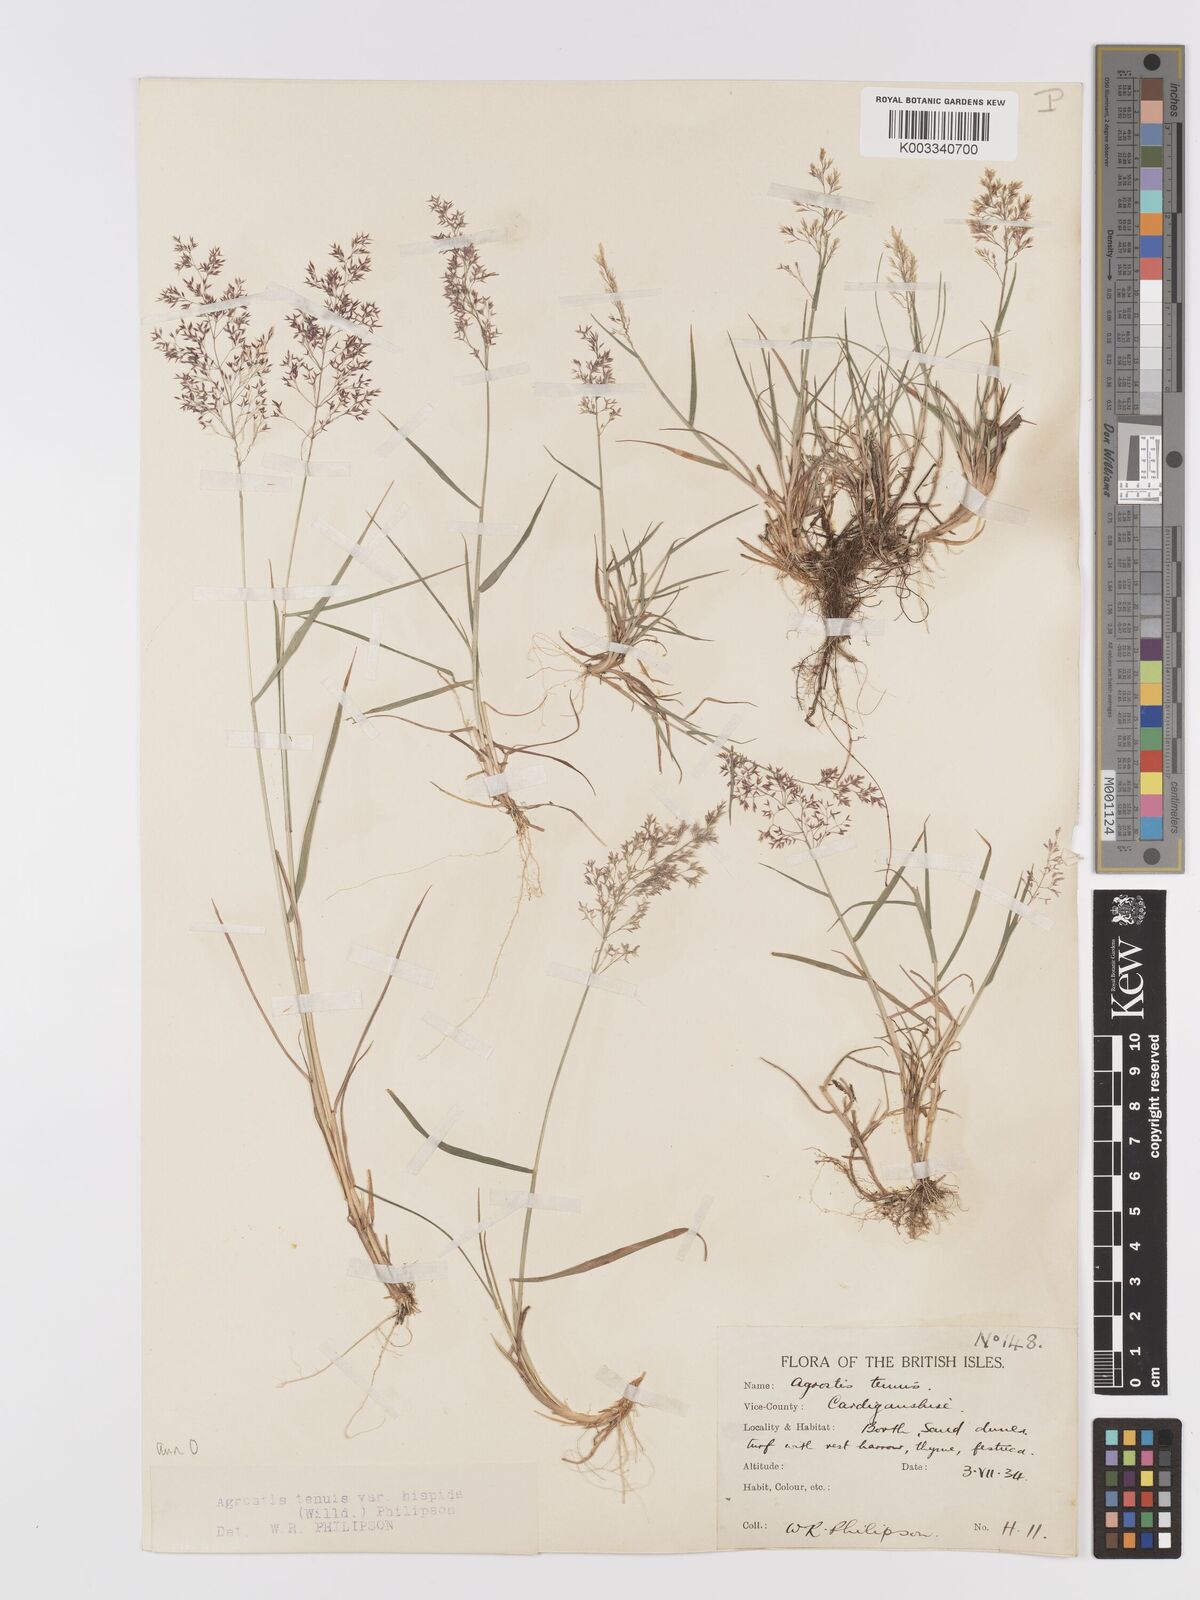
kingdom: Plantae
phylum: Tracheophyta
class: Liliopsida
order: Poales
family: Poaceae
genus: Agrostis
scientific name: Agrostis capillaris
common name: Colonial bentgrass
